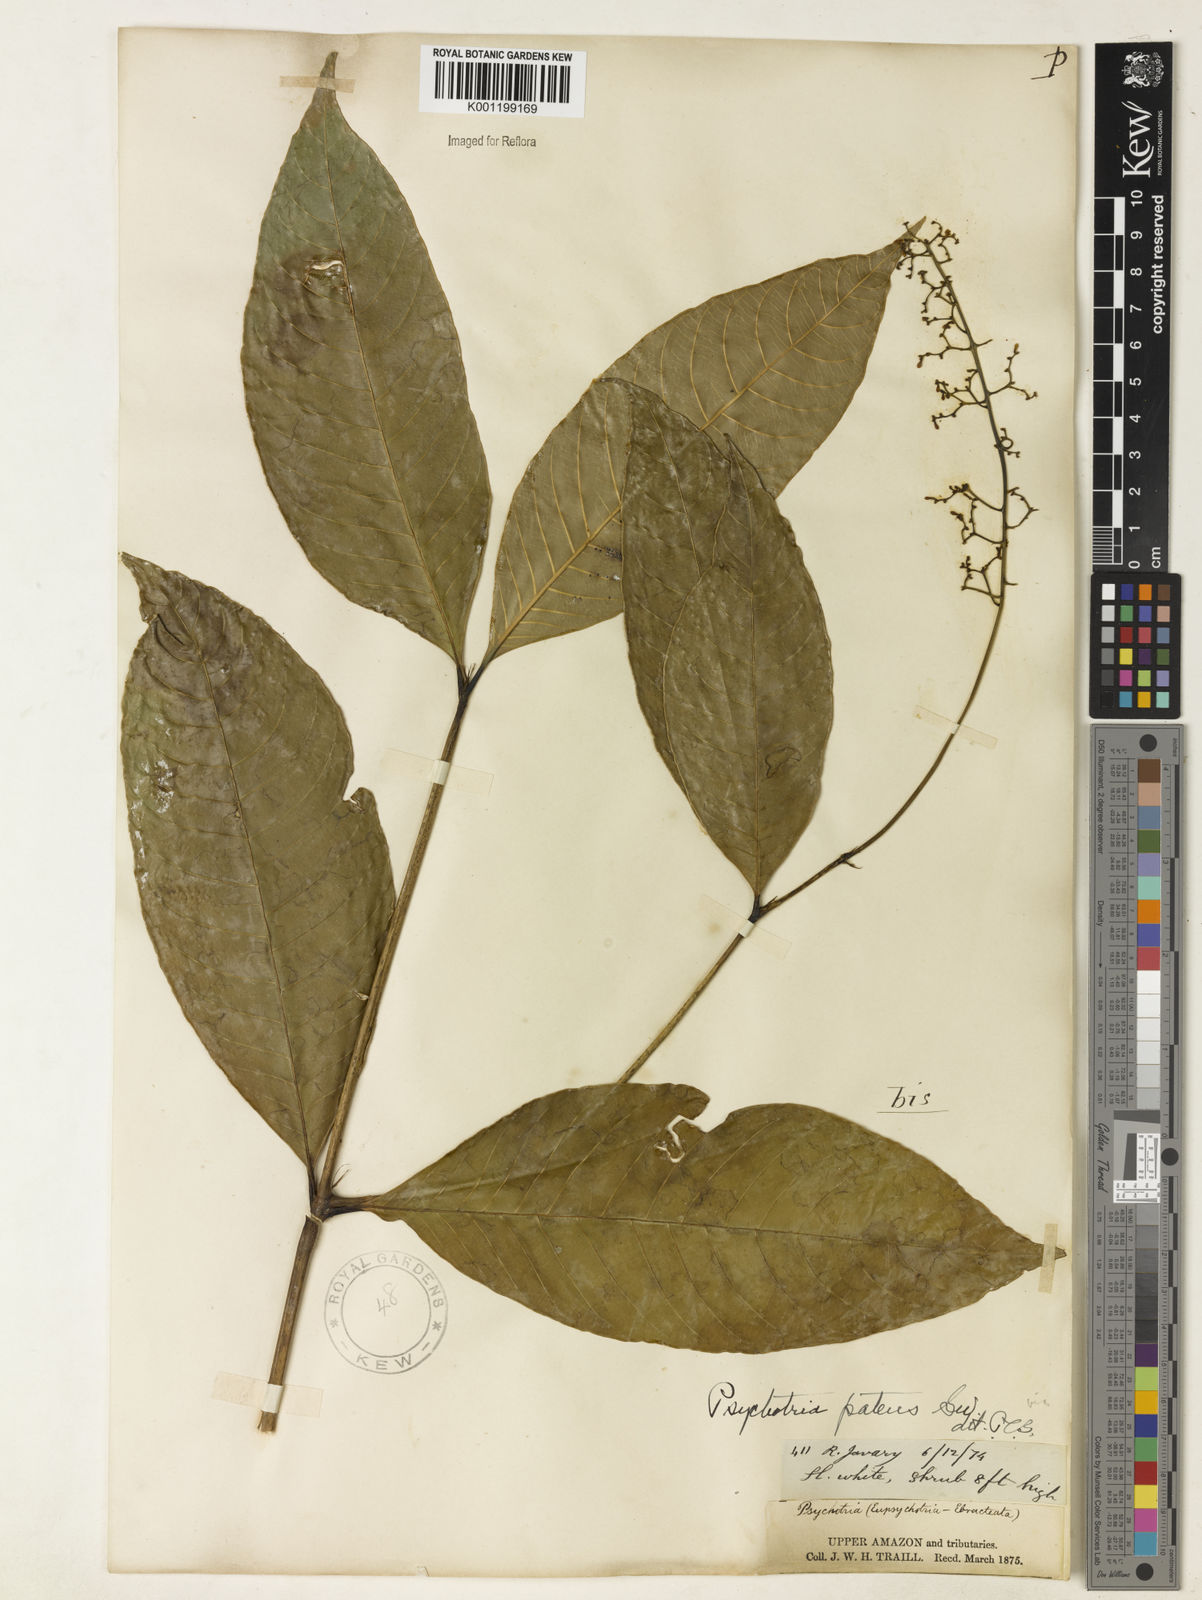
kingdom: Plantae
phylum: Tracheophyta
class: Magnoliopsida
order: Gentianales
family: Rubiaceae
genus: Palicourea
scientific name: Palicourea deflexa
